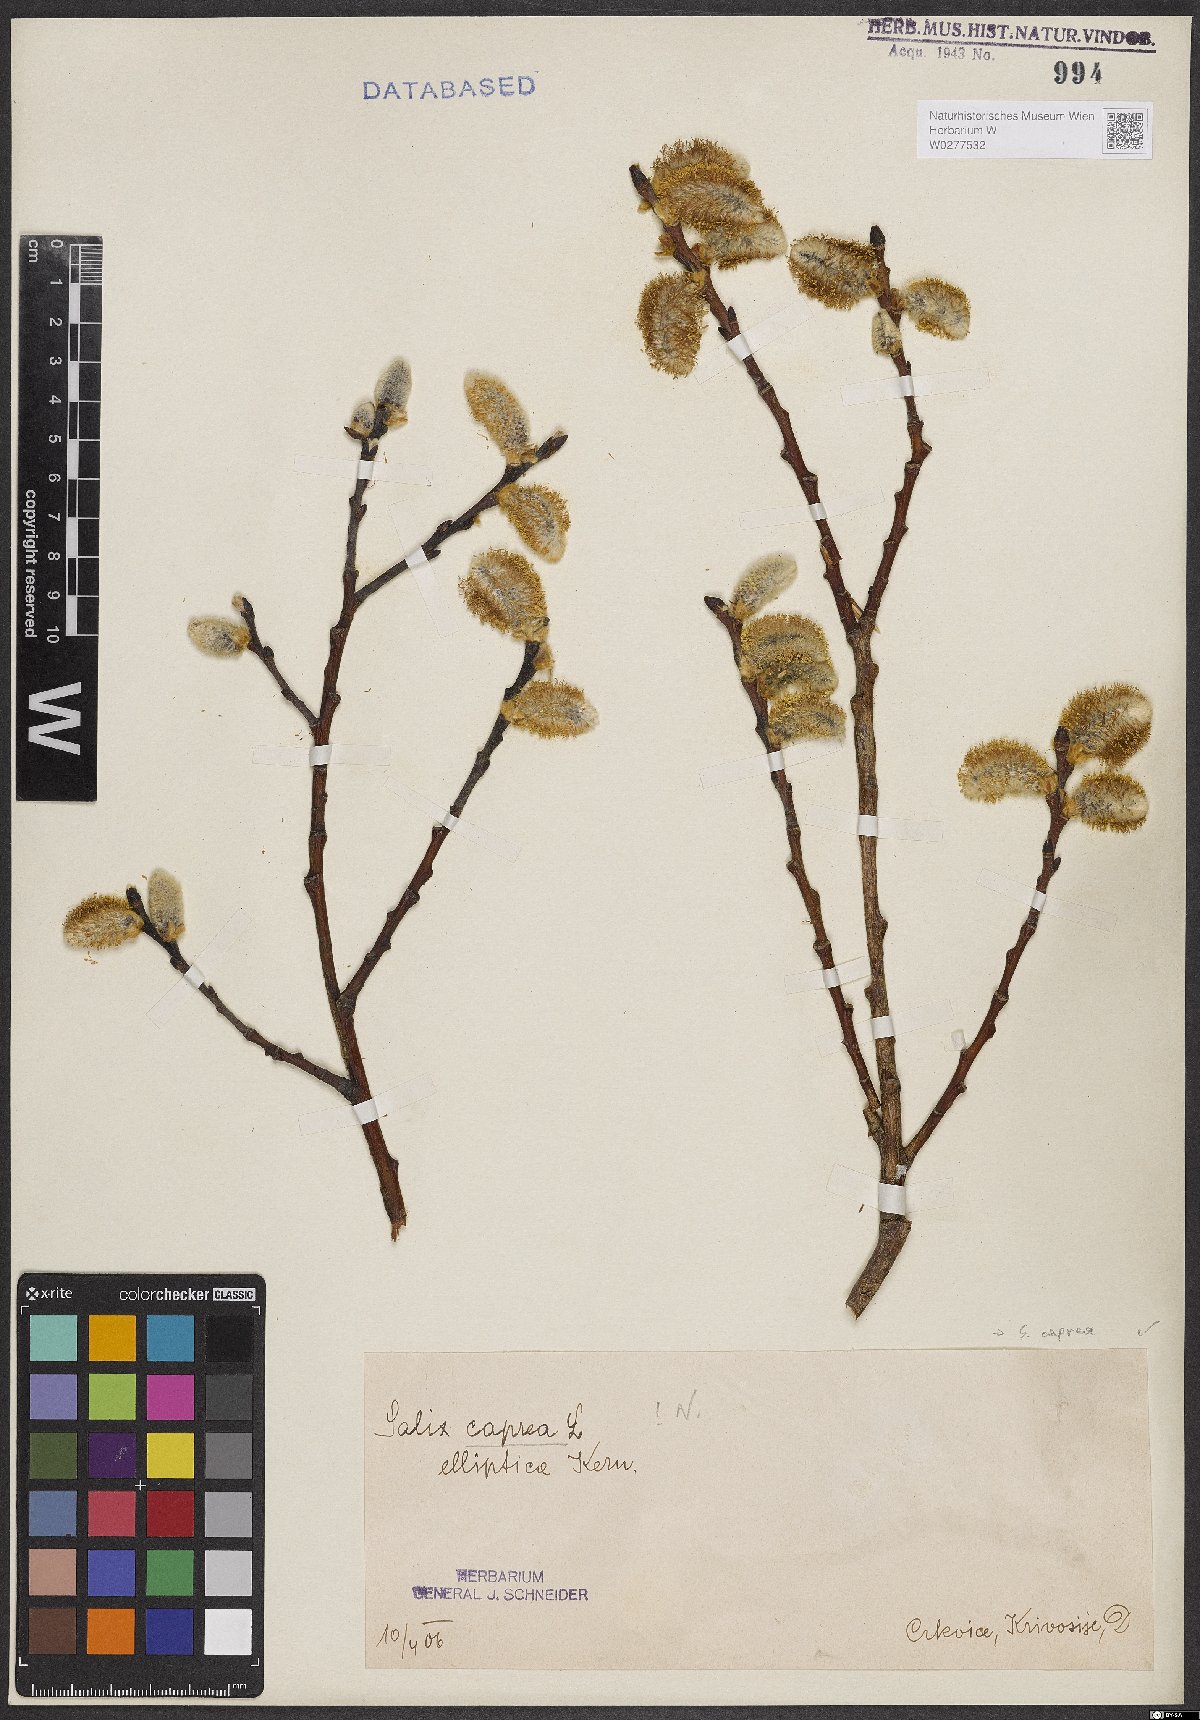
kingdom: Plantae
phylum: Tracheophyta
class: Magnoliopsida
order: Malpighiales
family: Salicaceae
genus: Salix
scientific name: Salix caprea
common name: Goat willow
